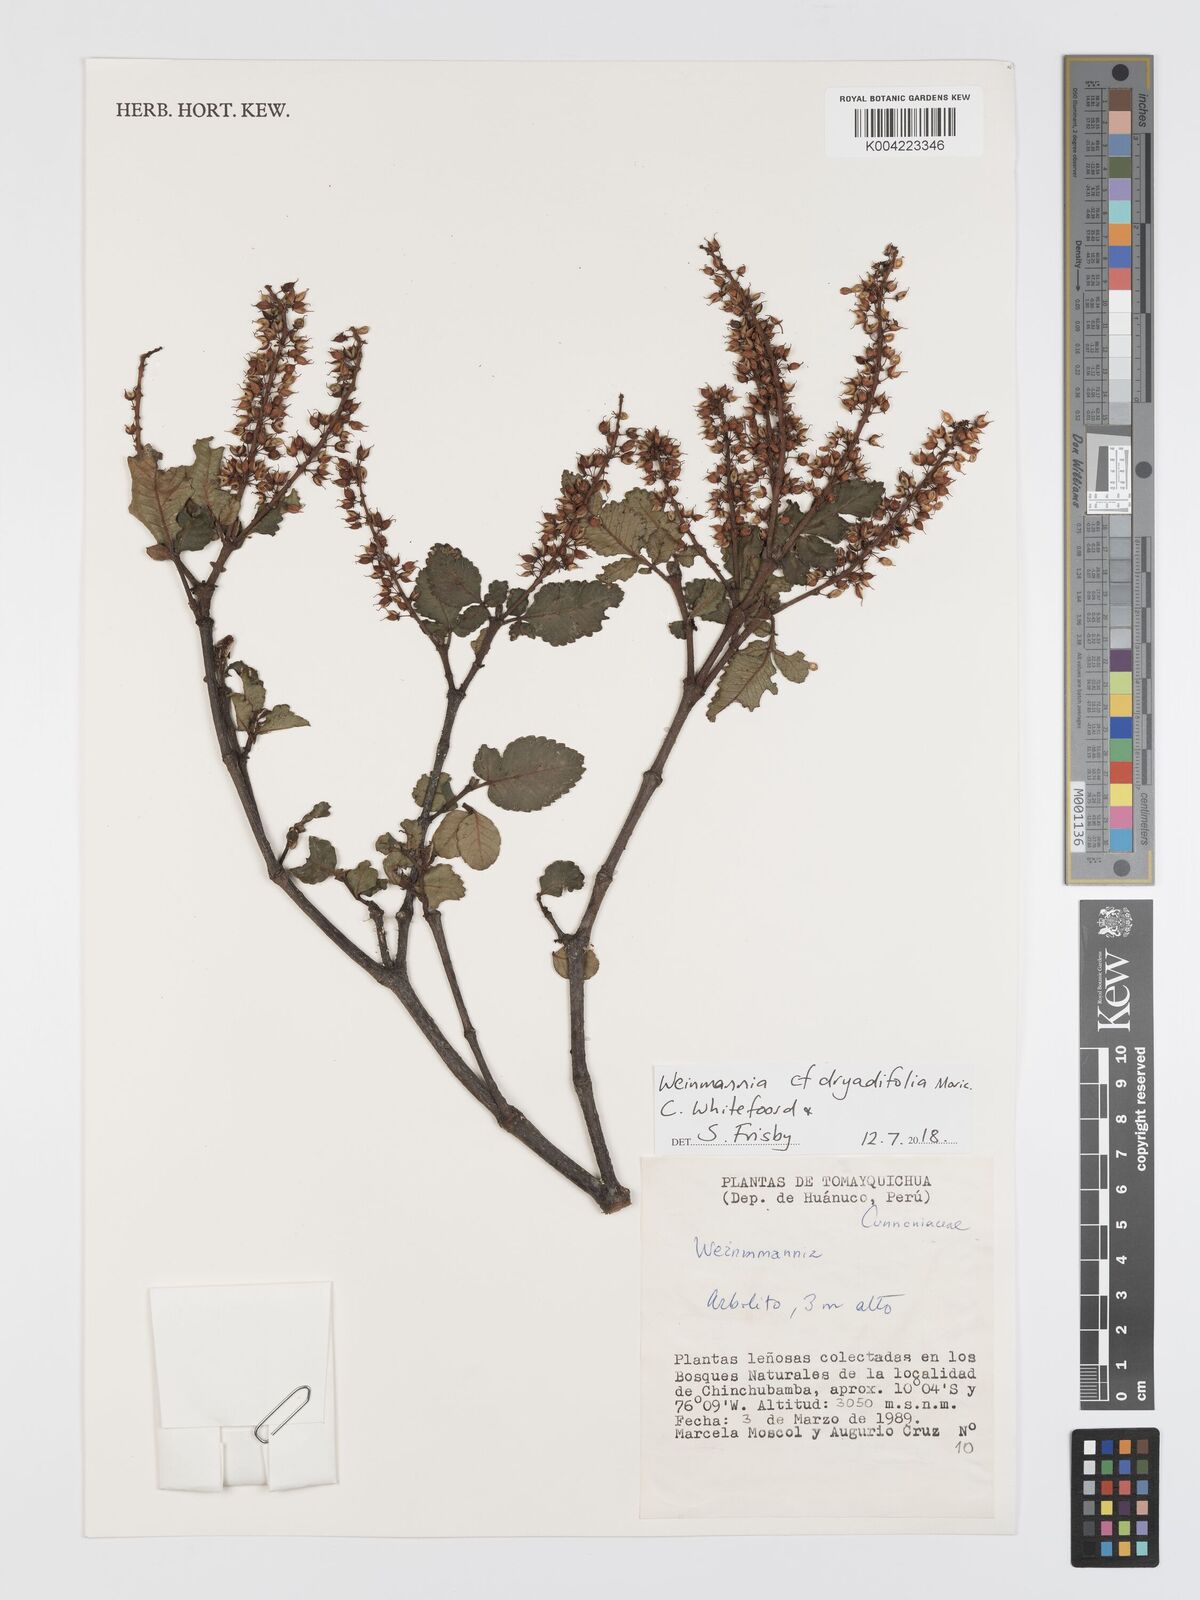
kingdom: Plantae
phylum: Tracheophyta
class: Magnoliopsida
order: Oxalidales
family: Cunoniaceae
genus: Weinmannia
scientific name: Weinmannia auriculata
